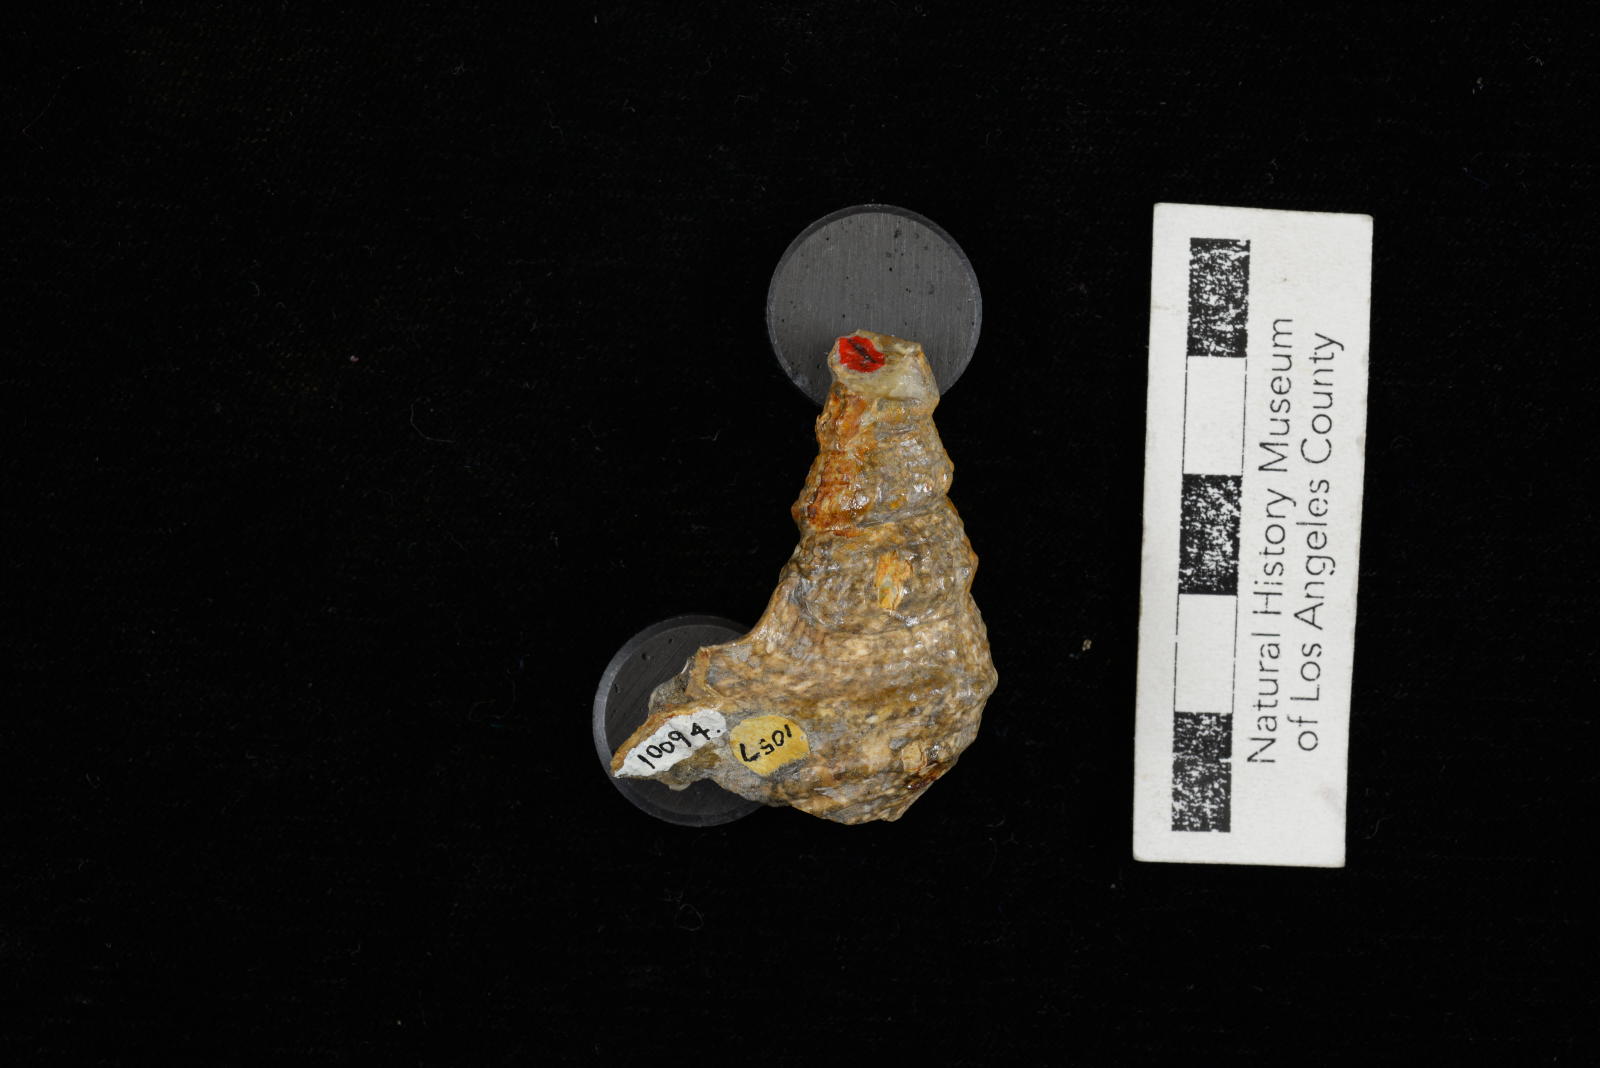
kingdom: Animalia
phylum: Mollusca
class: Gastropoda
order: Littorinimorpha
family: Aporrhaidae
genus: Anchura
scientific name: Anchura phaba
